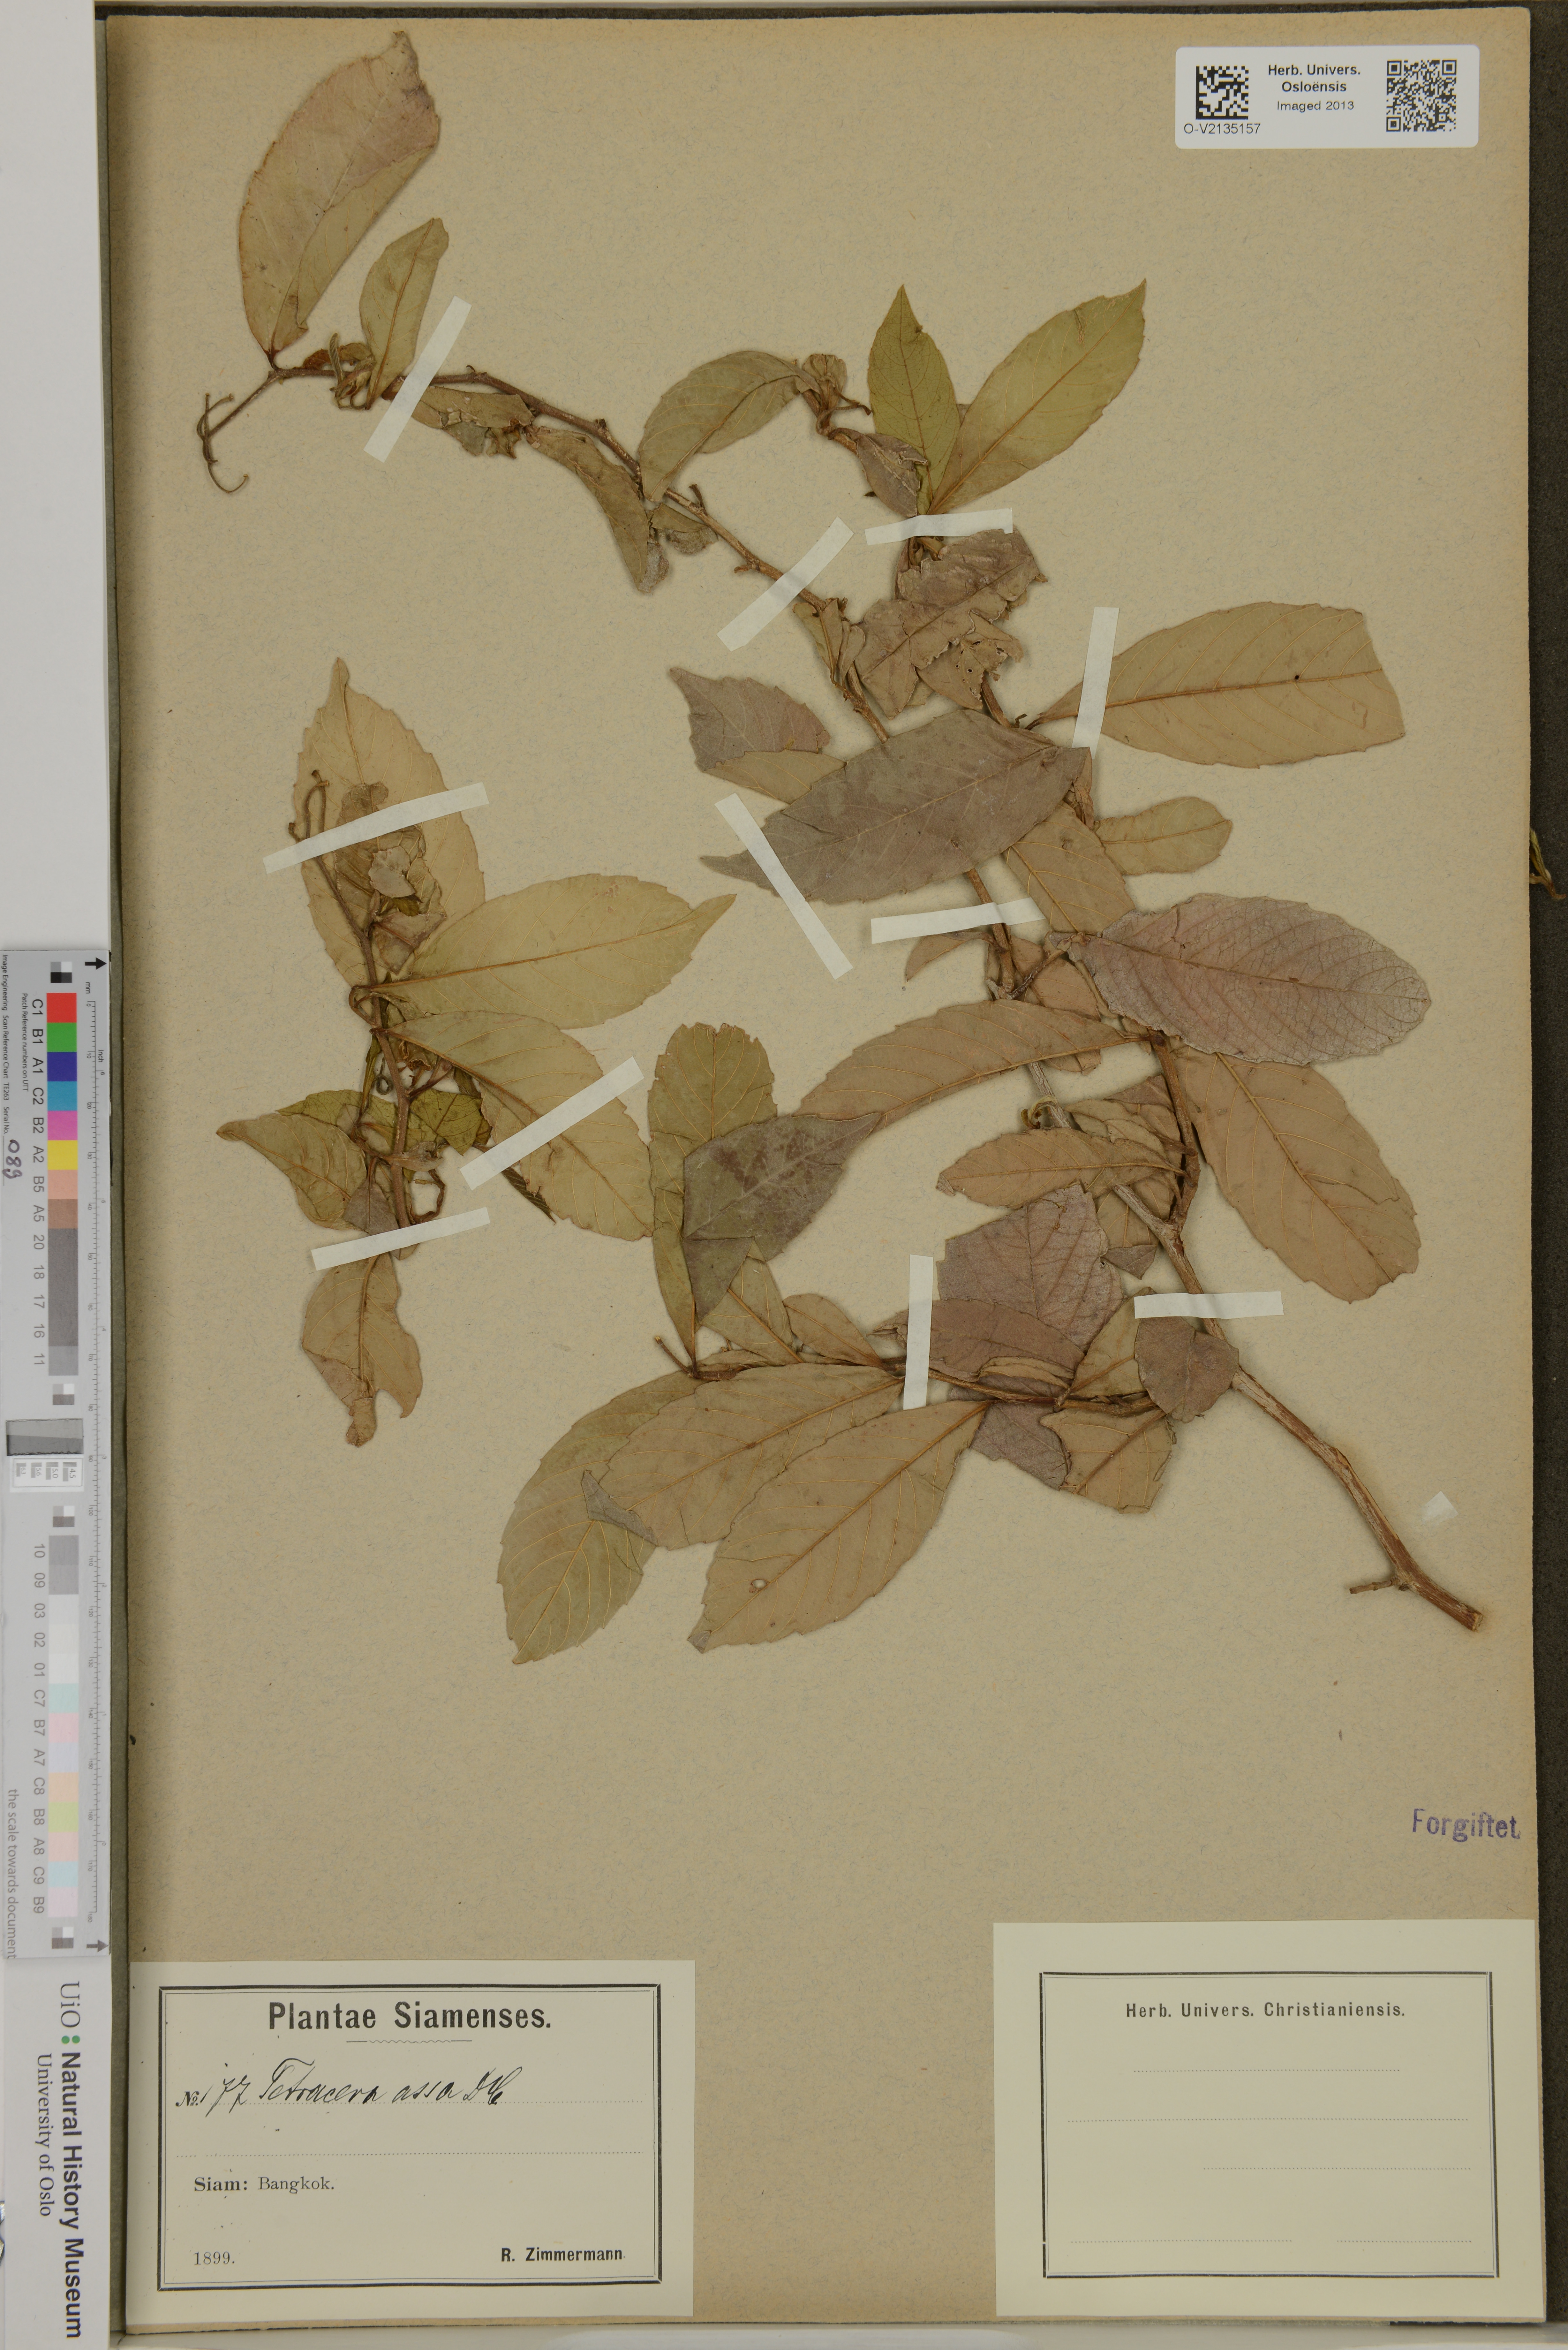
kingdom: Plantae
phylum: Tracheophyta
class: Magnoliopsida
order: Dilleniales
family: Dilleniaceae
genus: Tetracera
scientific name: Tetracera indica
